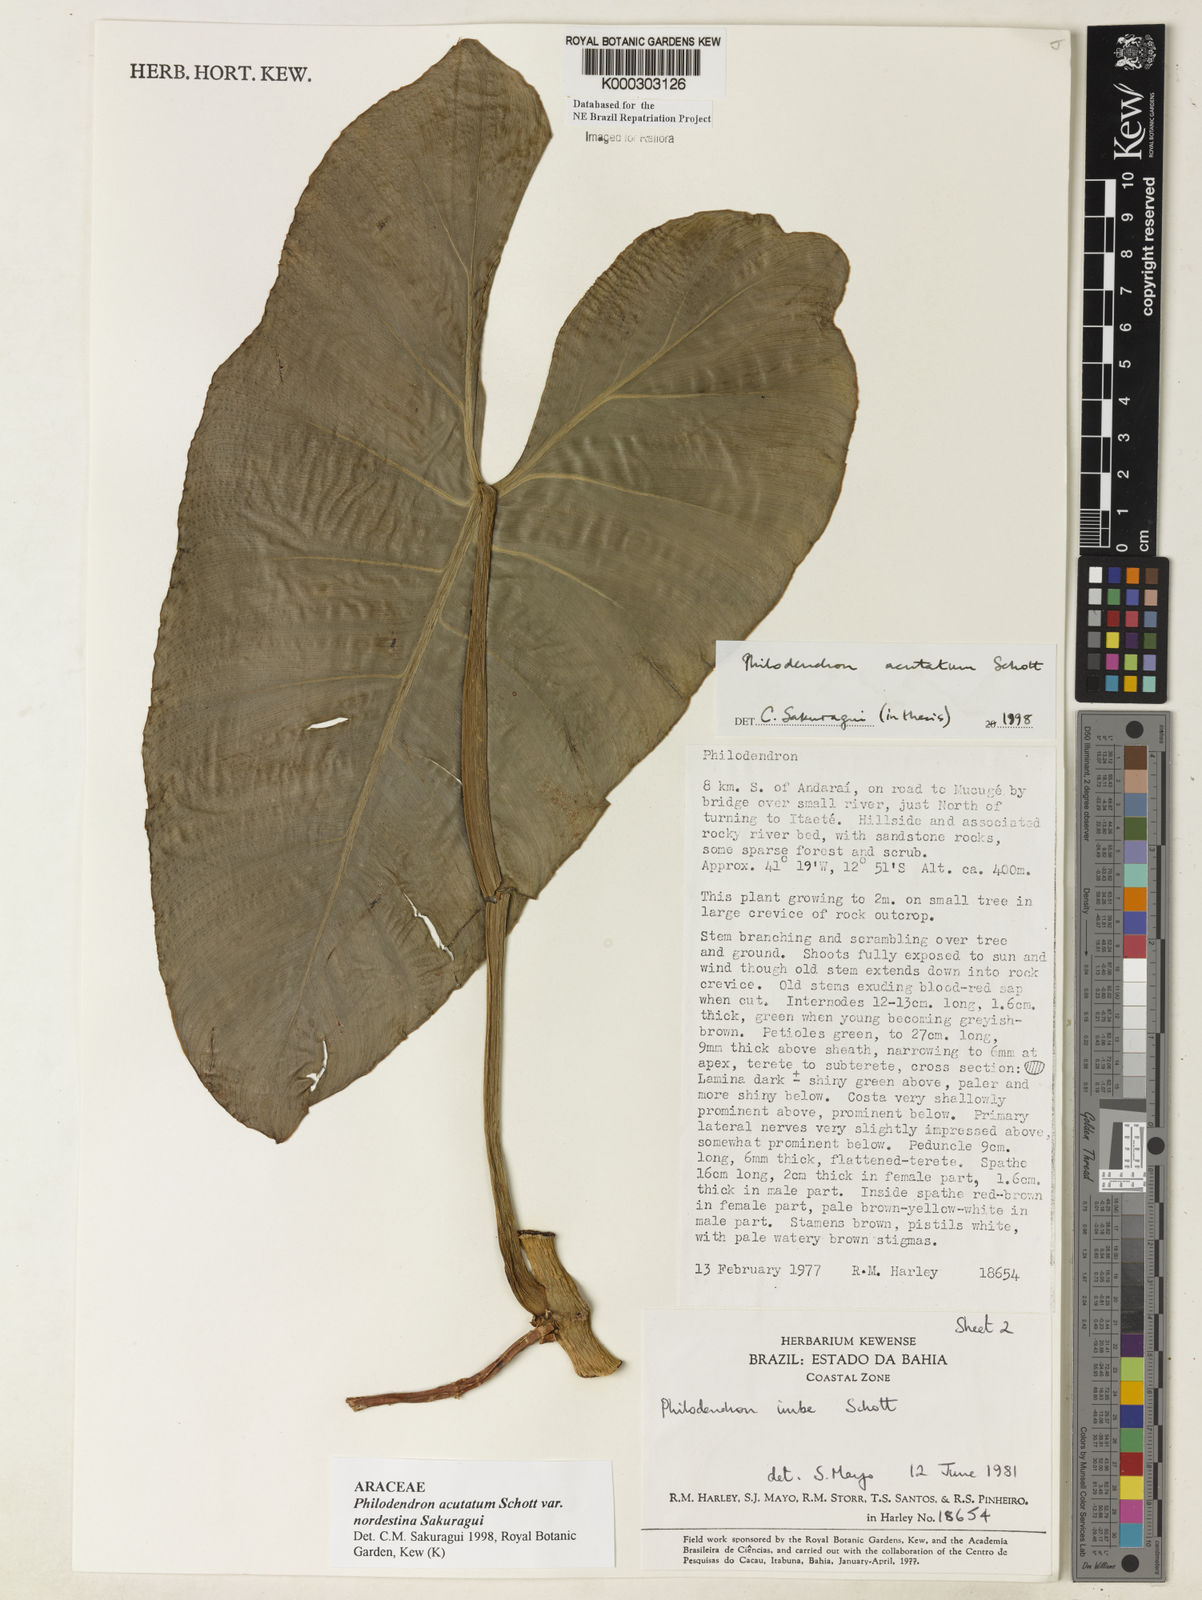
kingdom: Plantae
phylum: Tracheophyta
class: Liliopsida
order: Alismatales
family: Araceae
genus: Philodendron
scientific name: Philodendron quinquenervium
